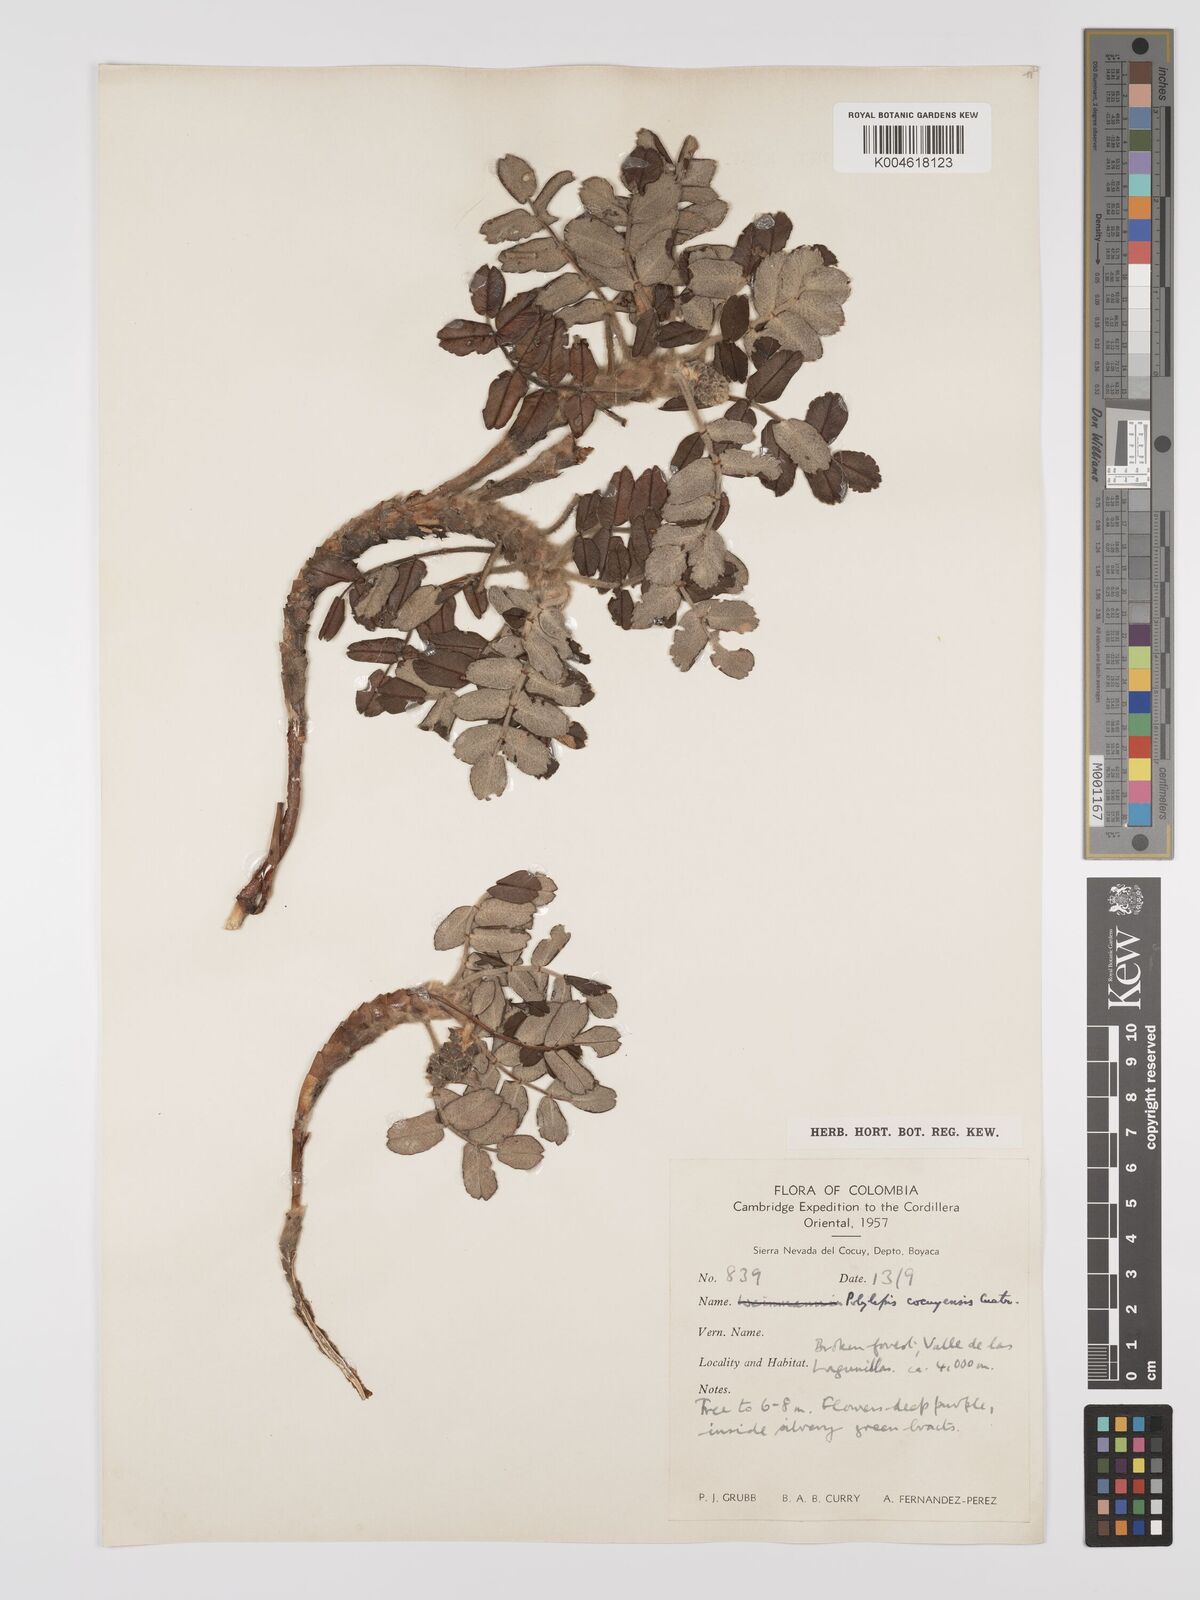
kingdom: Plantae
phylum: Tracheophyta
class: Magnoliopsida
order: Rosales
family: Rosaceae
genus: Polylepis
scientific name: Polylepis quadrijuga
